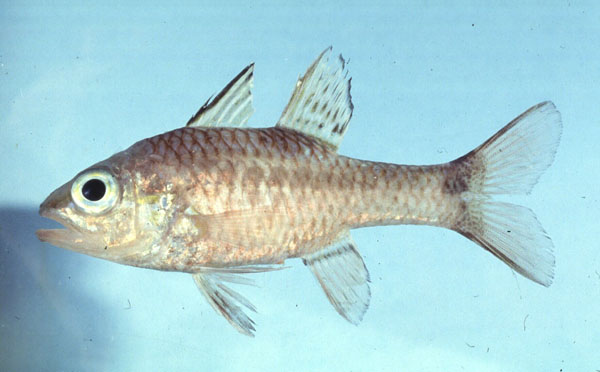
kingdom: Animalia
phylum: Chordata
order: Perciformes
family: Apogonidae
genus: Pristiapogon
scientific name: Pristiapogon kallopterus
